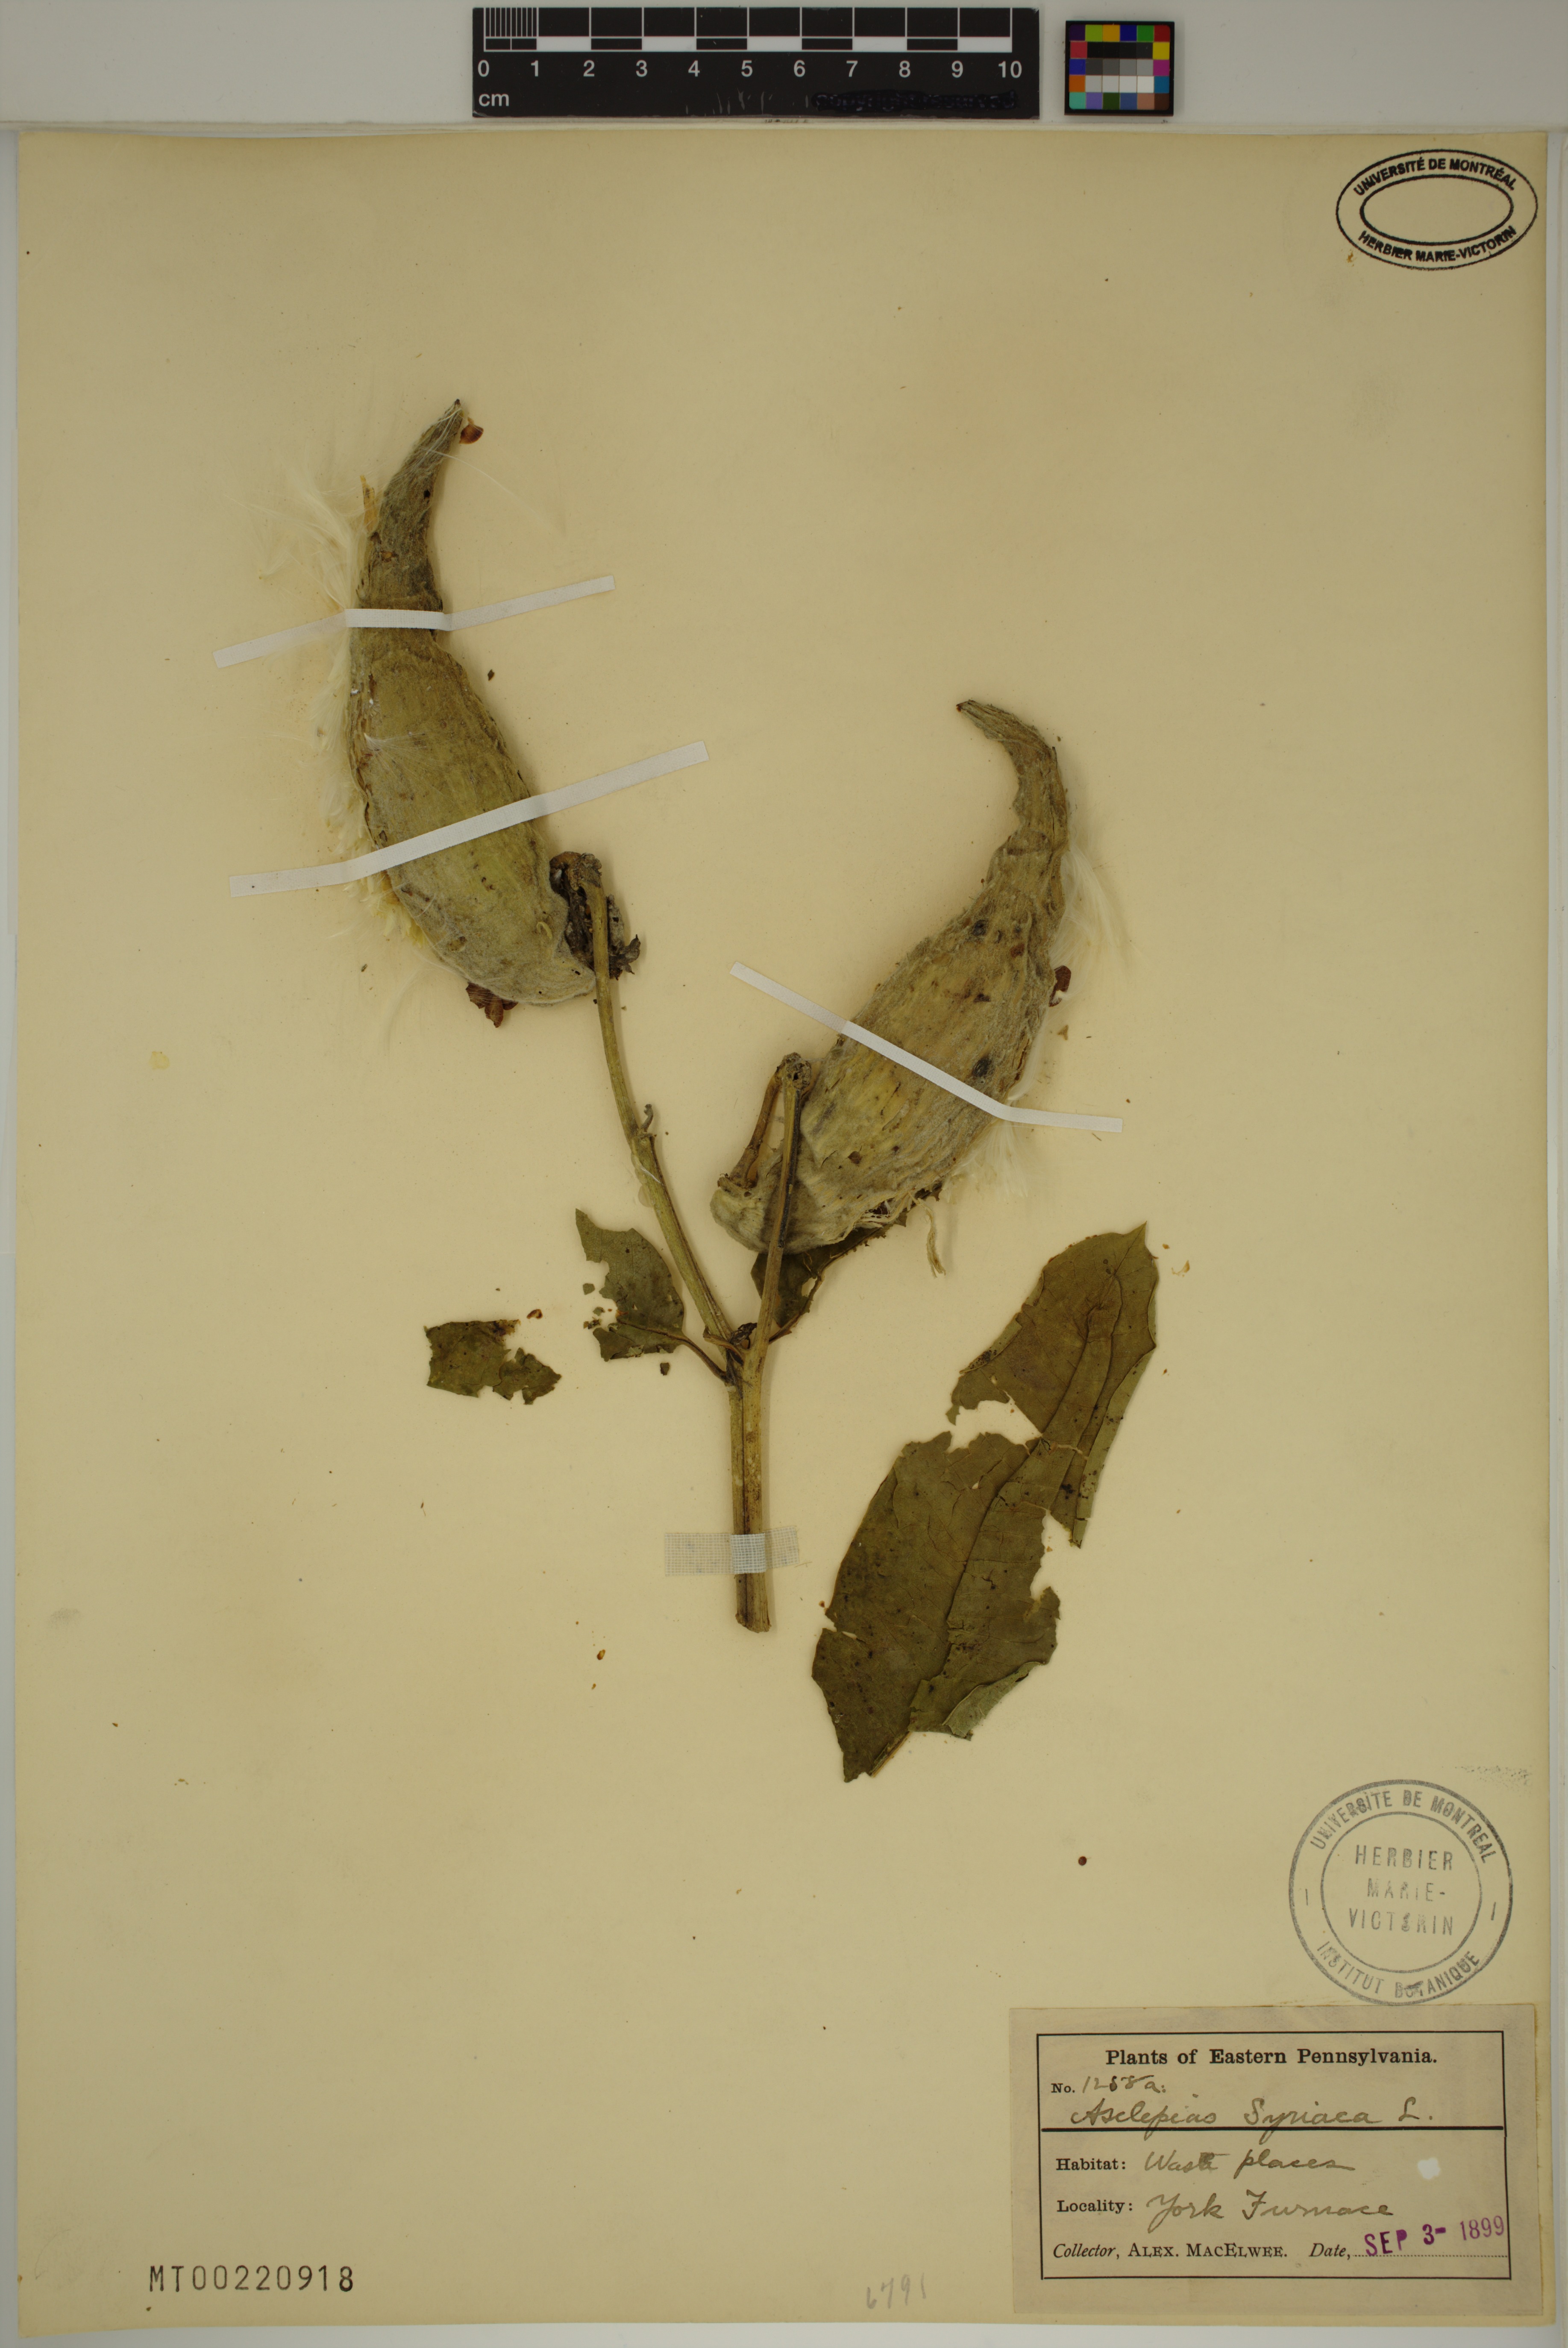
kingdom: Plantae
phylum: Tracheophyta
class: Magnoliopsida
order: Gentianales
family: Apocynaceae
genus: Asclepias
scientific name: Asclepias syriaca
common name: Common milkweed
